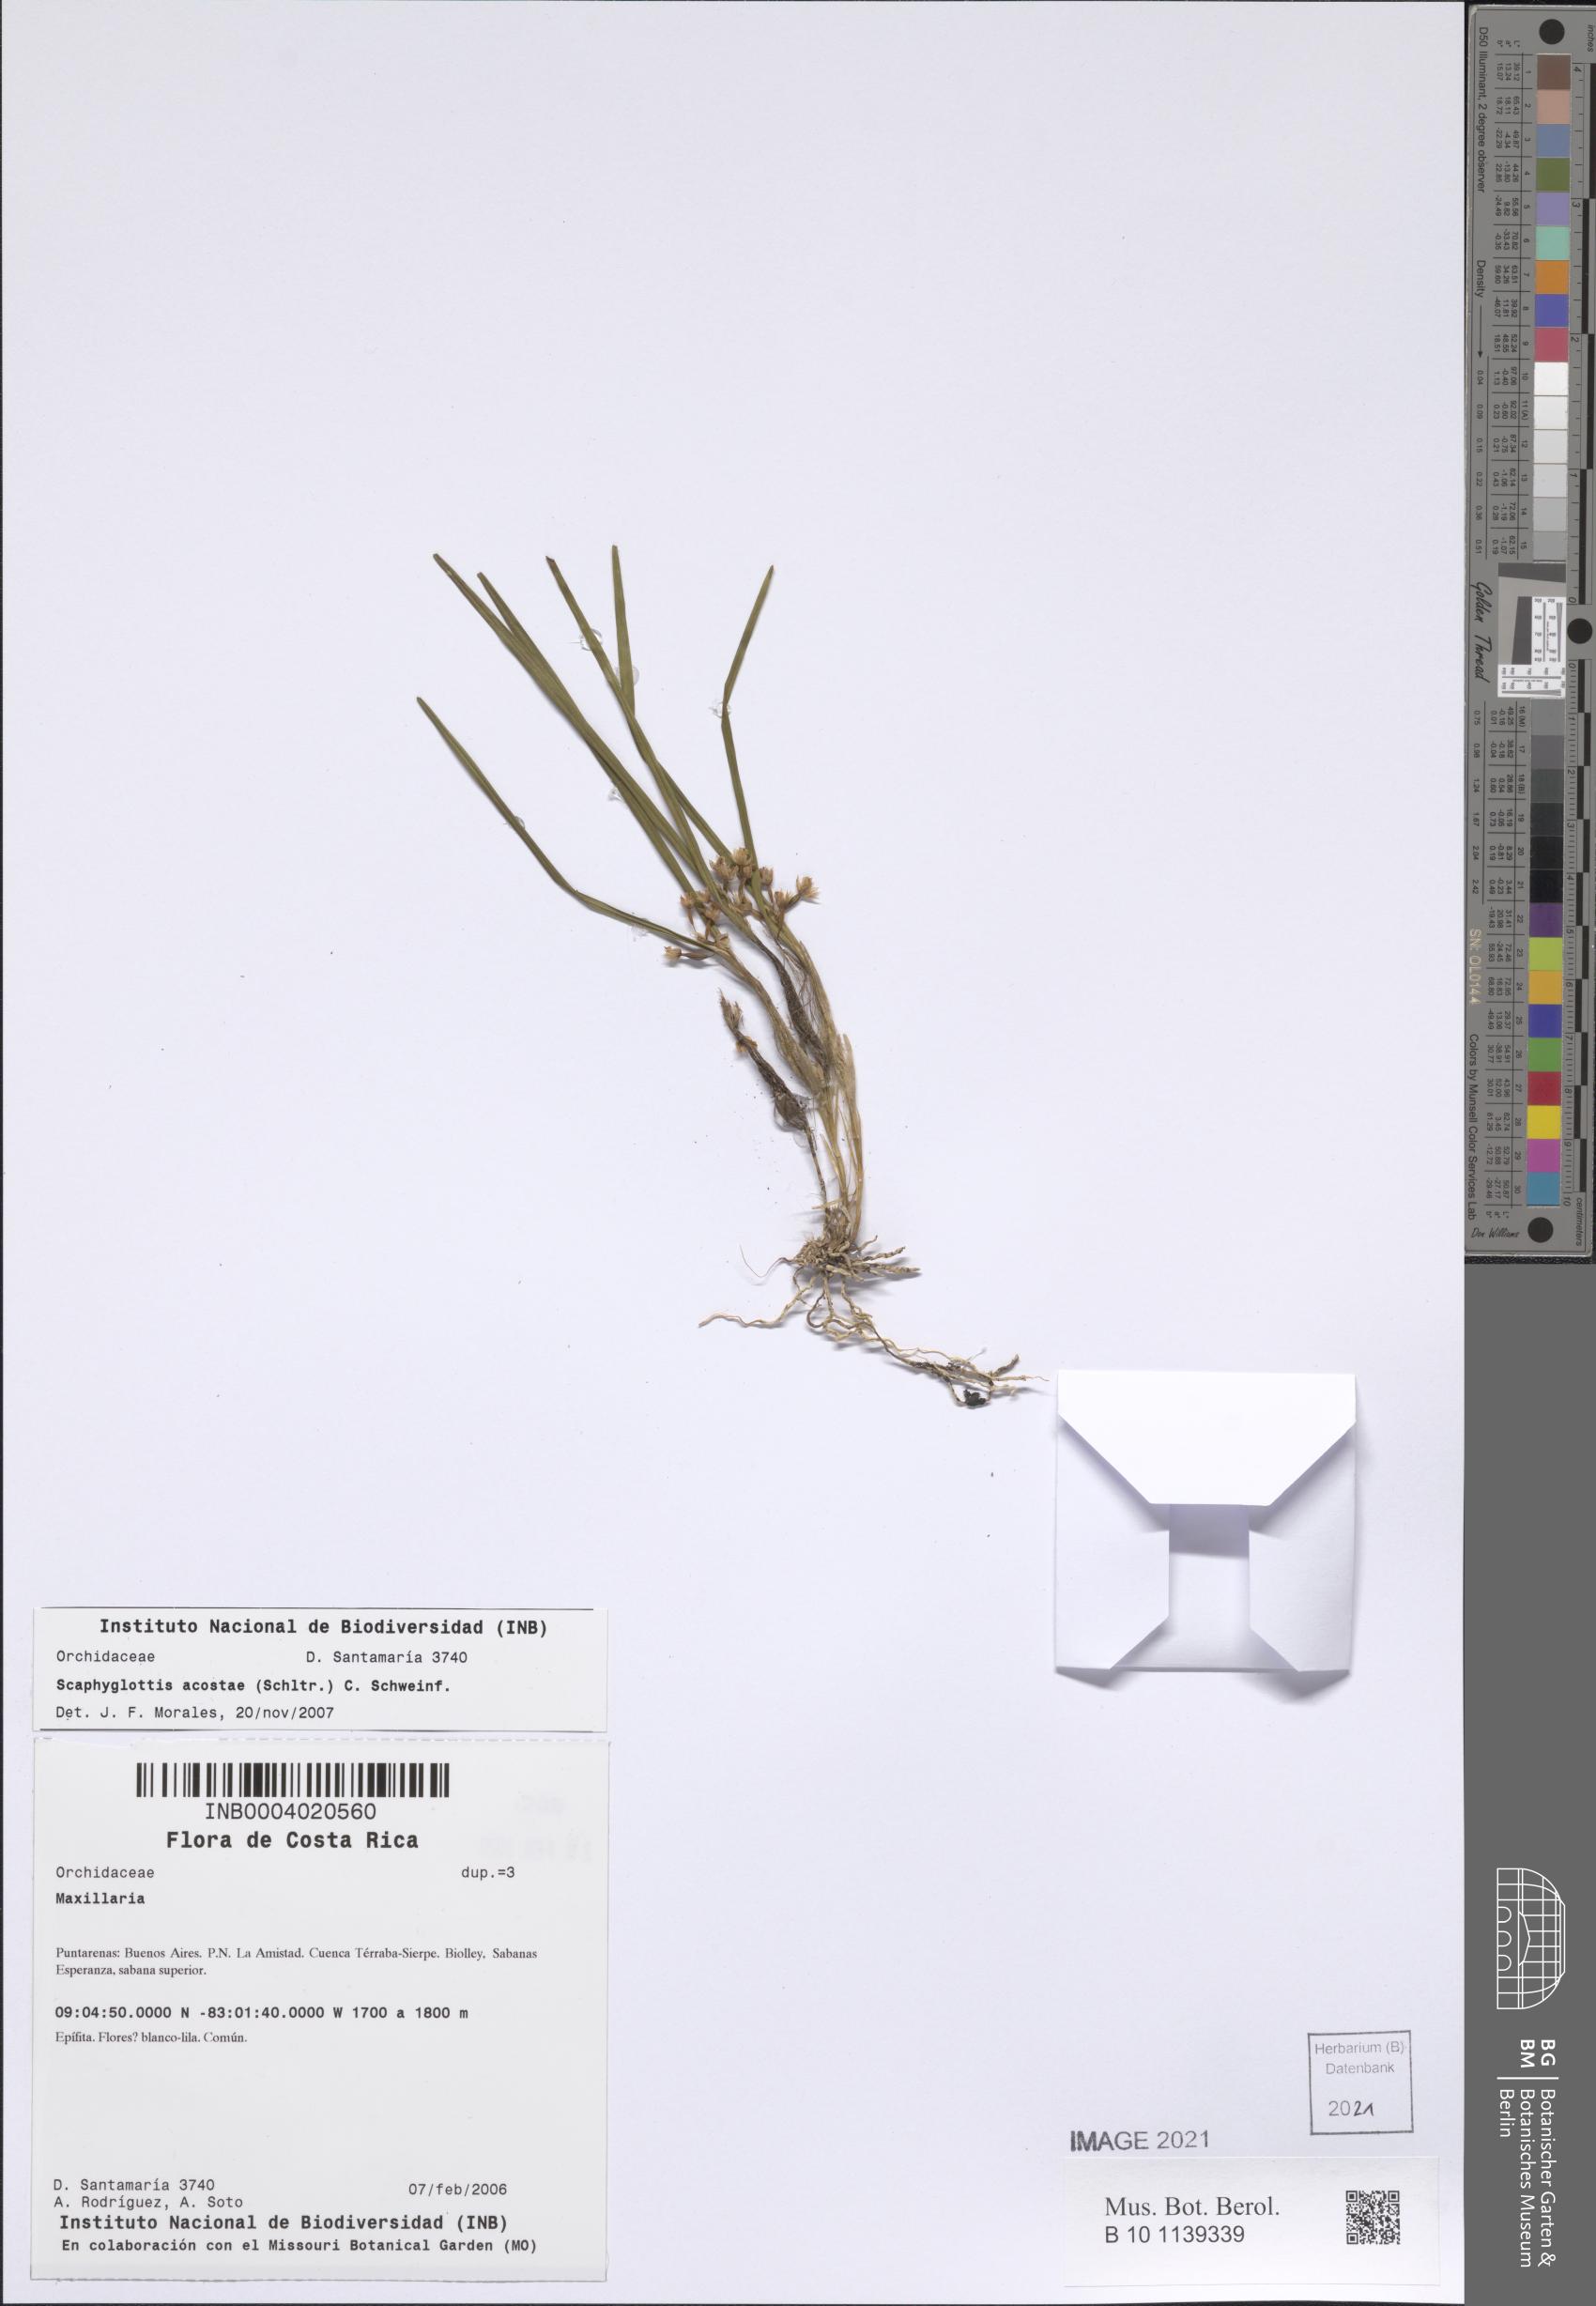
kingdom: Plantae
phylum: Tracheophyta
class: Liliopsida
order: Asparagales
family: Orchidaceae
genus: Scaphyglottis
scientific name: Scaphyglottis acostae
